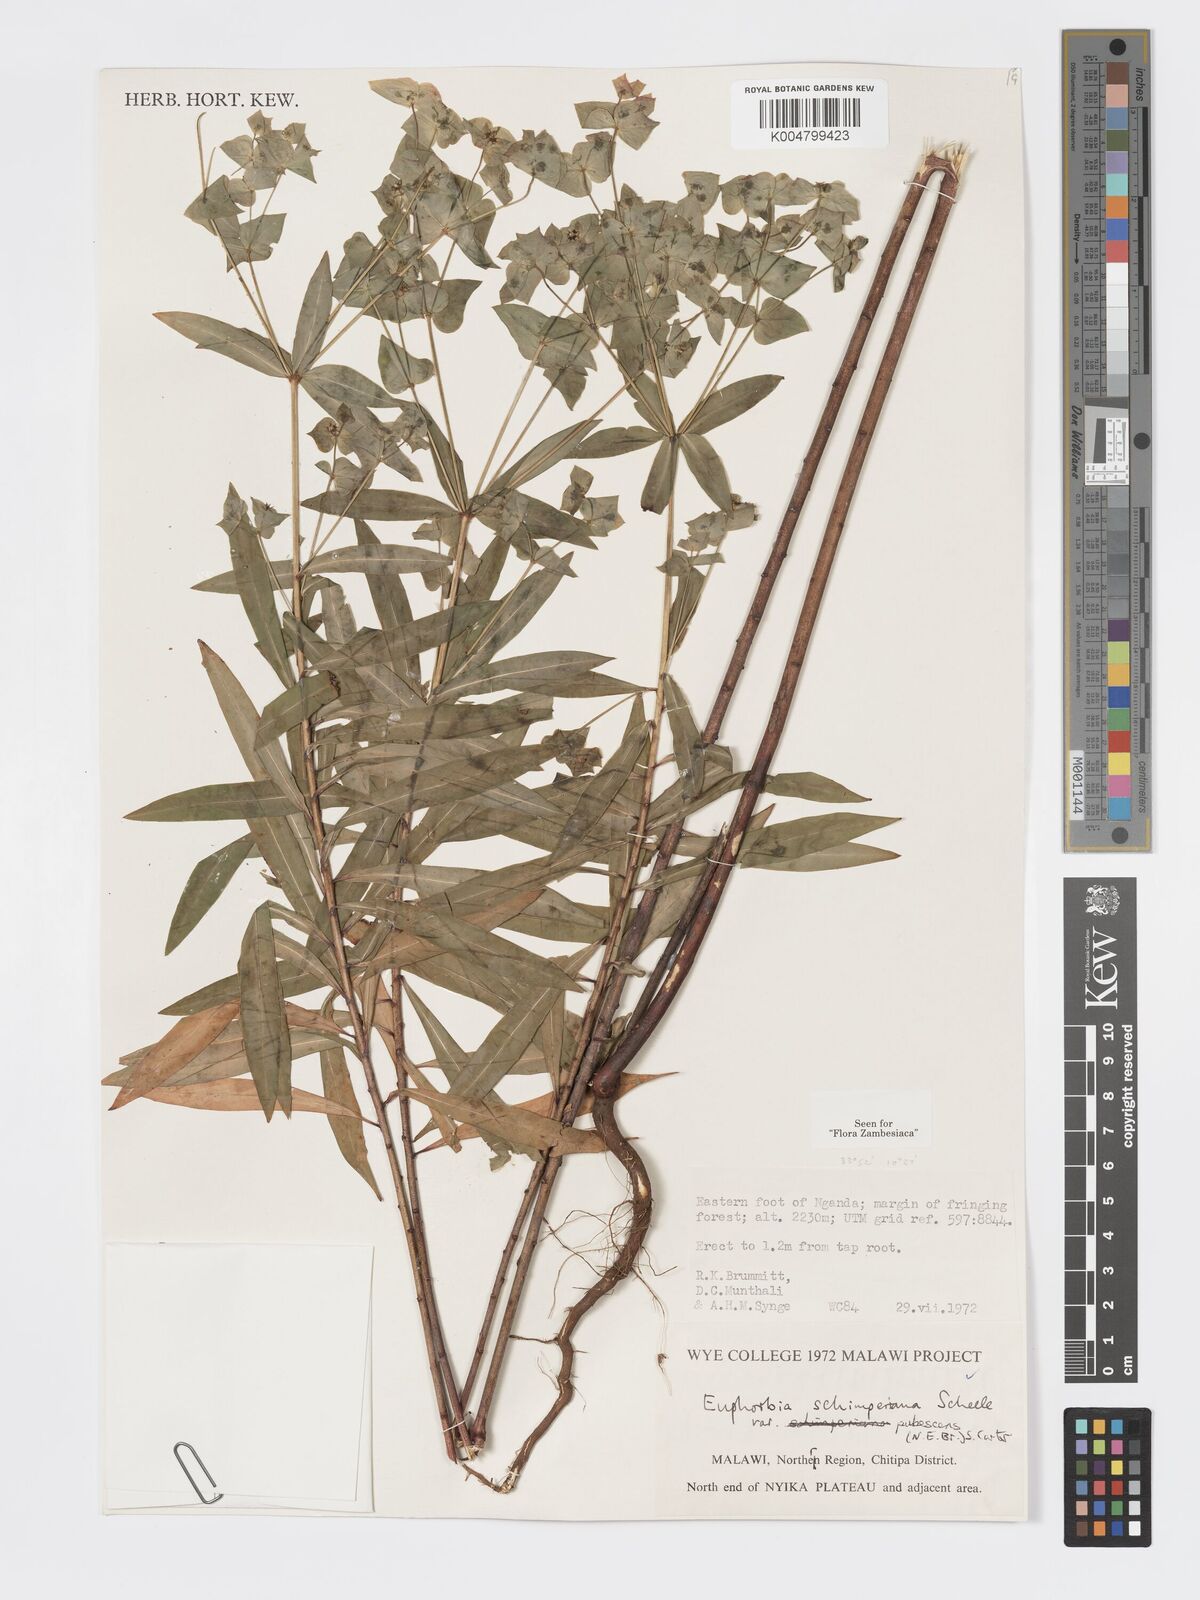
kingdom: Plantae
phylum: Tracheophyta
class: Magnoliopsida
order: Malpighiales
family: Euphorbiaceae
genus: Euphorbia
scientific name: Euphorbia schimperiana
